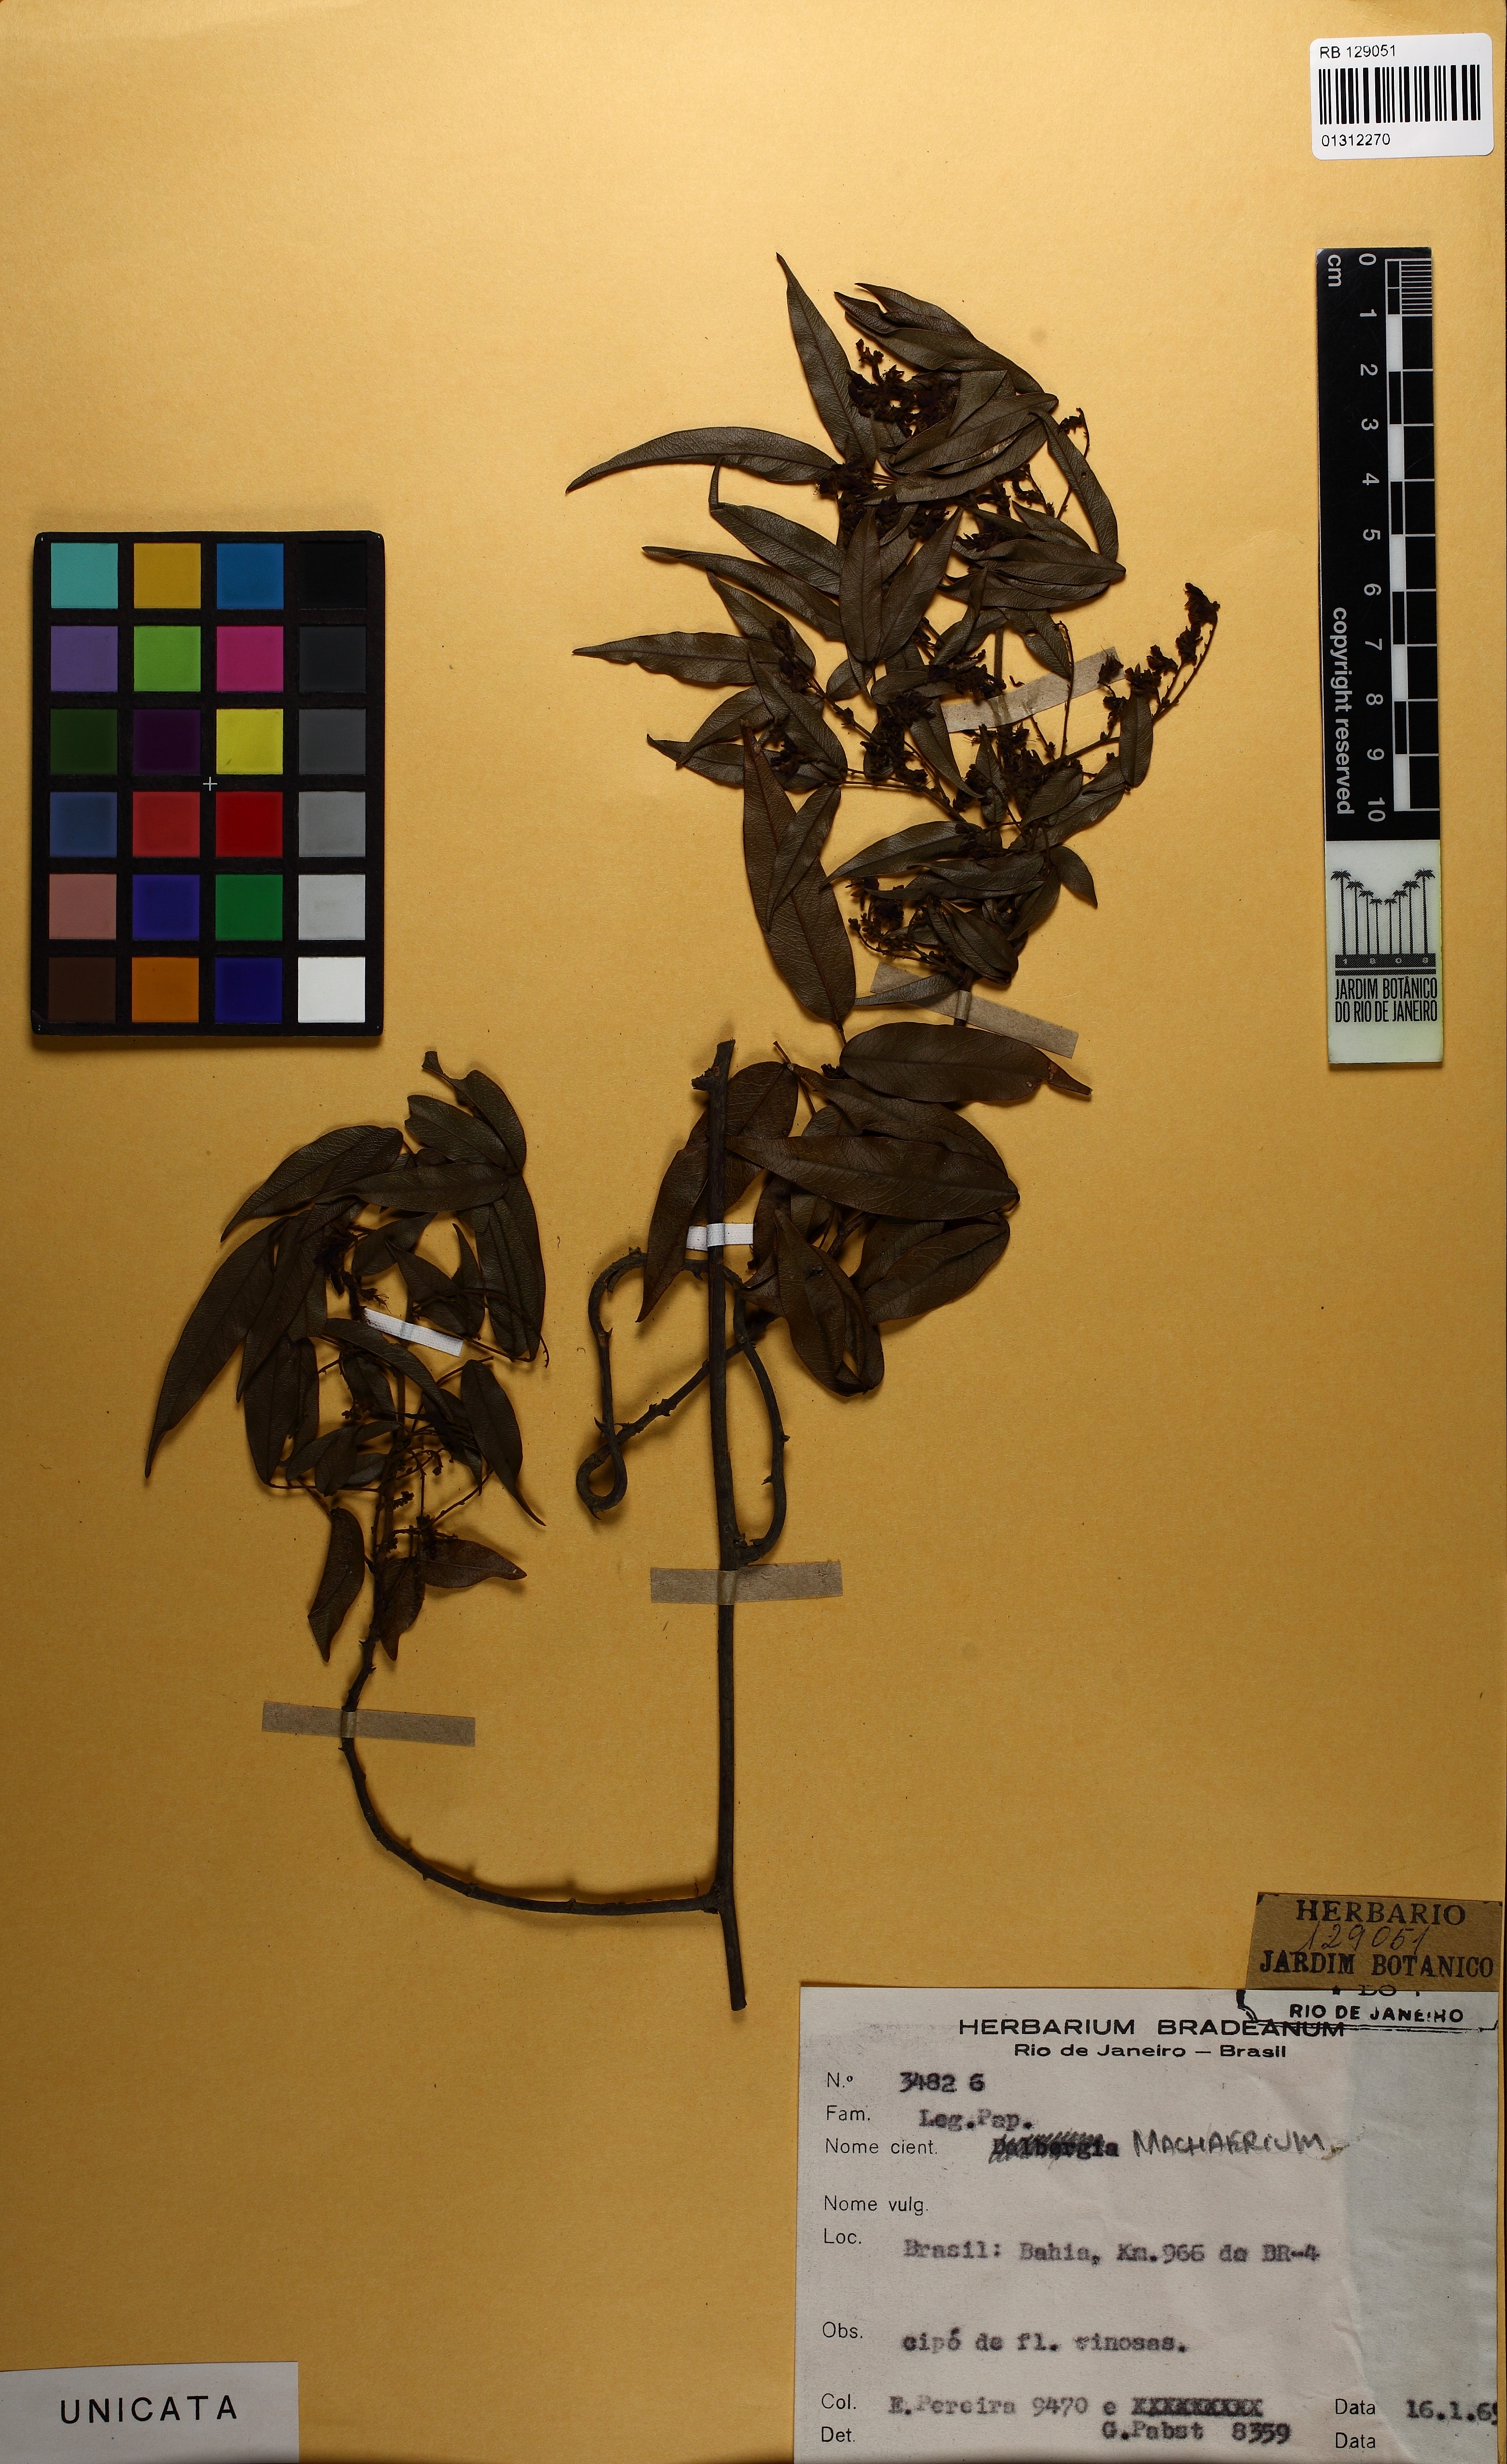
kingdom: Plantae
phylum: Tracheophyta
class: Magnoliopsida
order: Fabales
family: Fabaceae
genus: Machaerium
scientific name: Machaerium
